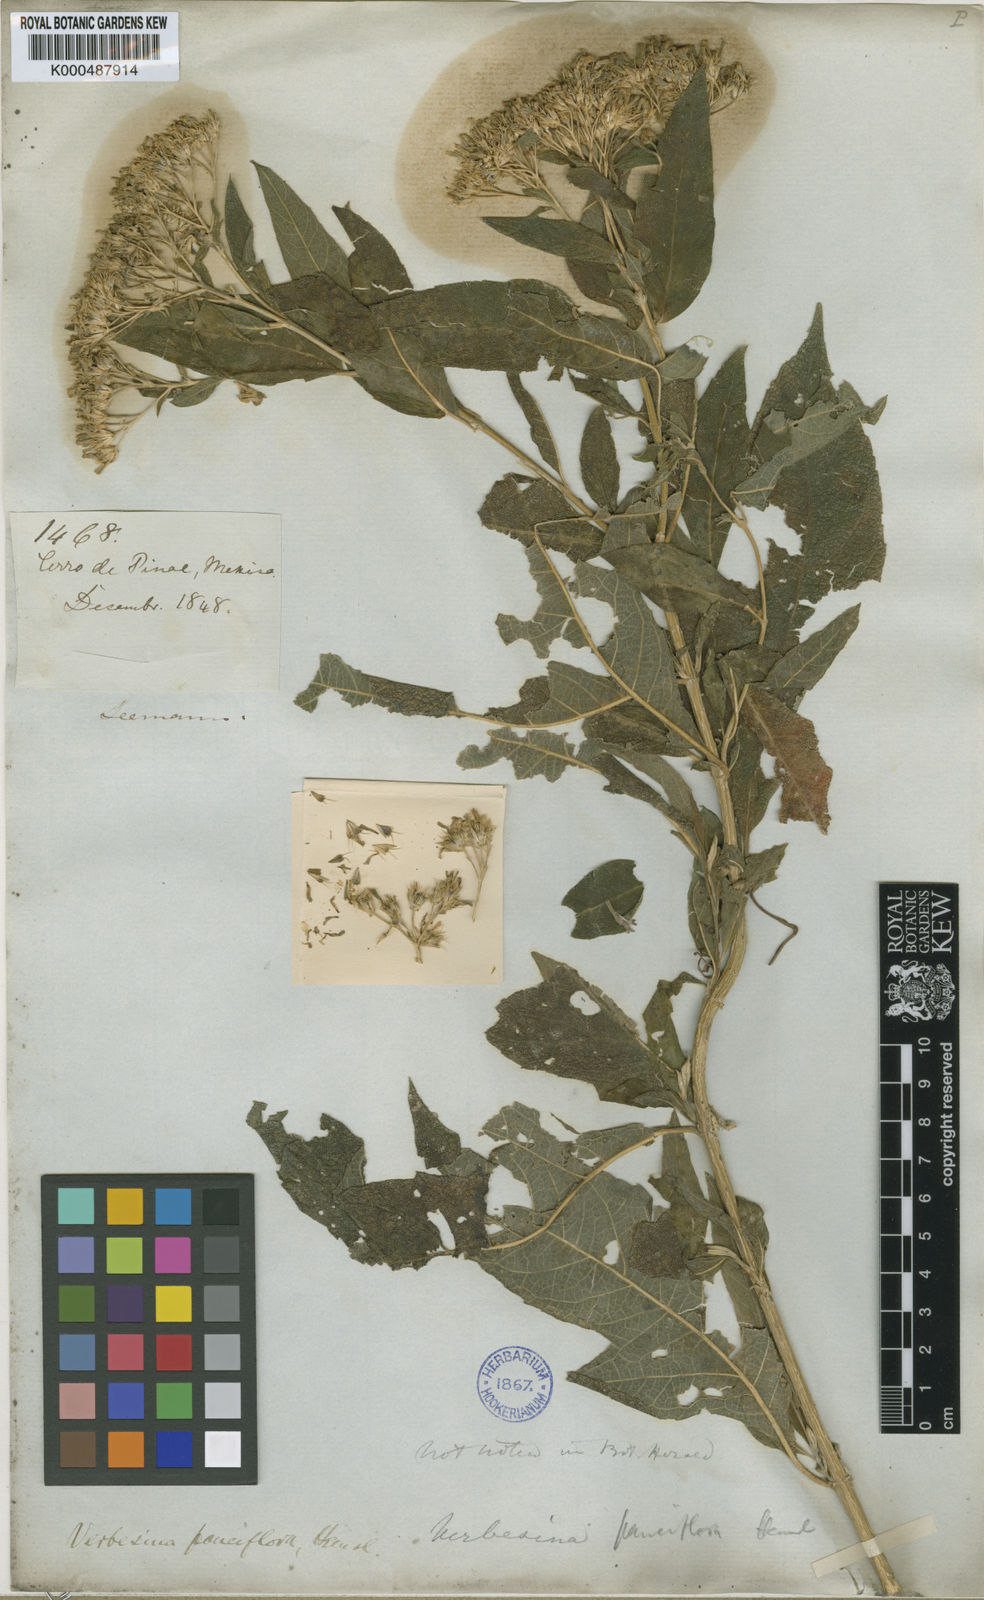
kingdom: Plantae
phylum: Tracheophyta
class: Magnoliopsida
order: Asterales
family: Asteraceae
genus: Verbesina
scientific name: Verbesina pauciflora
